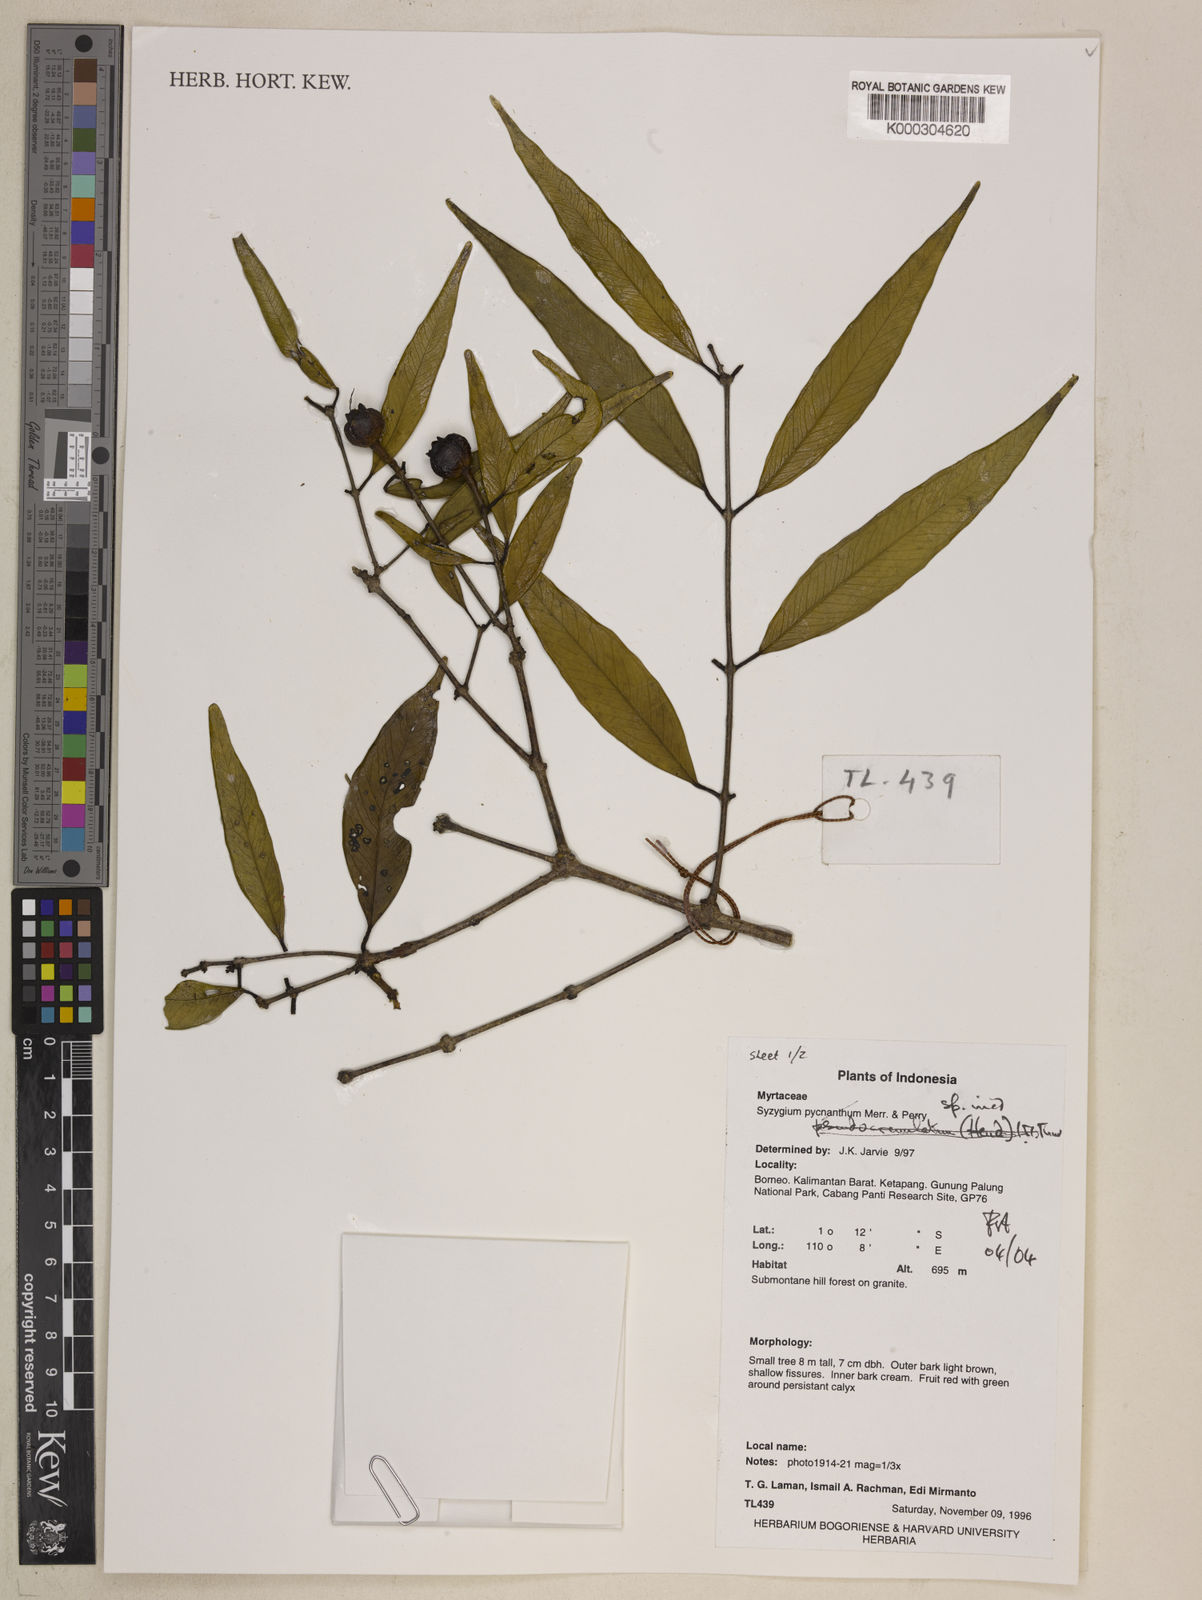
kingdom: Plantae
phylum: Tracheophyta
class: Magnoliopsida
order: Myrtales
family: Myrtaceae
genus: Syzygium
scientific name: Syzygium
